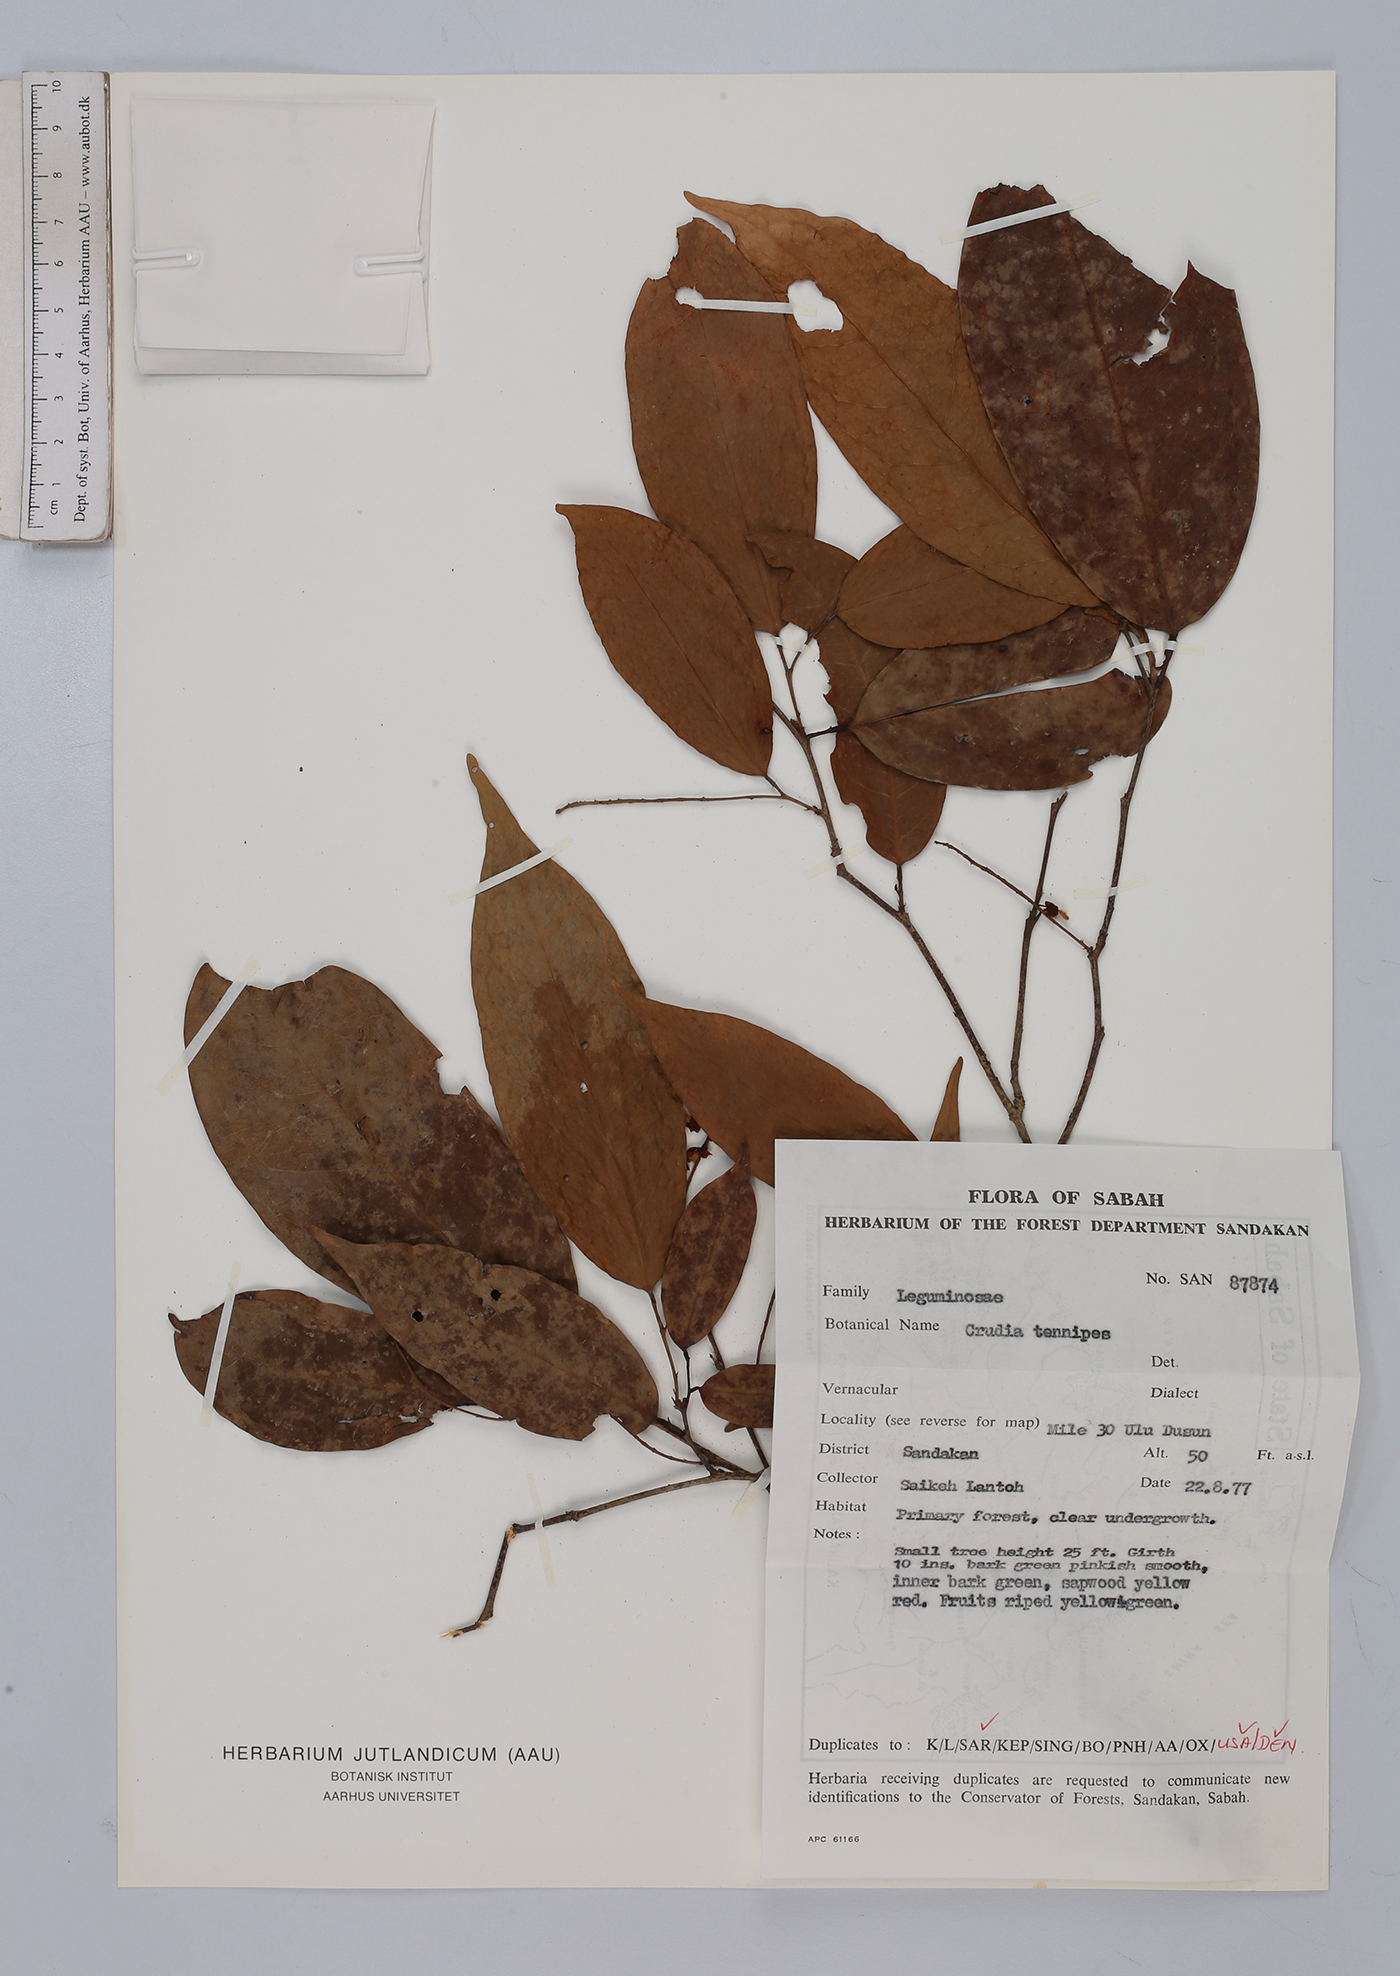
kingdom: Plantae
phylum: Tracheophyta
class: Magnoliopsida
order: Fabales
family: Fabaceae
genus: Crudia
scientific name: Crudia tenuipes
